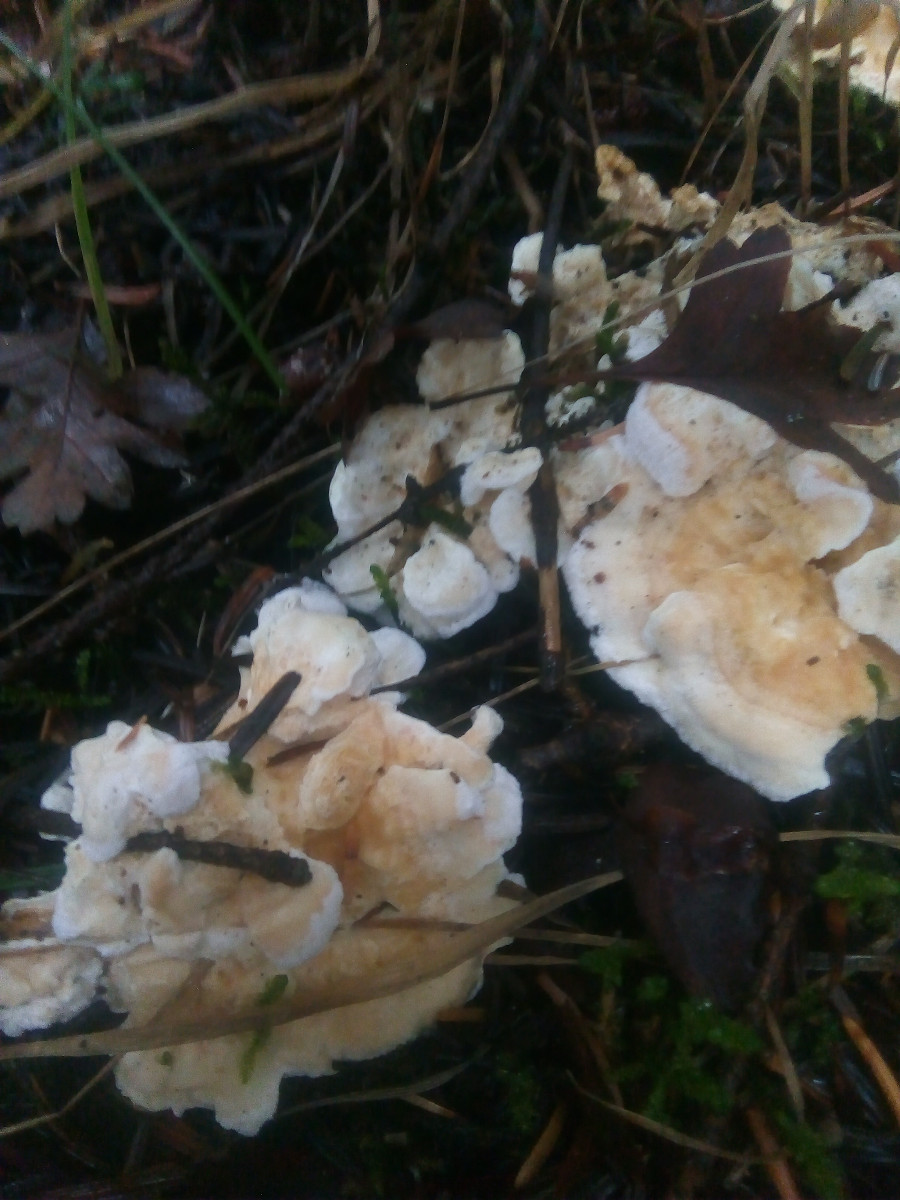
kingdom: Fungi
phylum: Basidiomycota
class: Agaricomycetes
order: Polyporales
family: Dacryobolaceae
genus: Oligoporus
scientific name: Oligoporus wakefieldiae
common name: række-kødporesvamp
